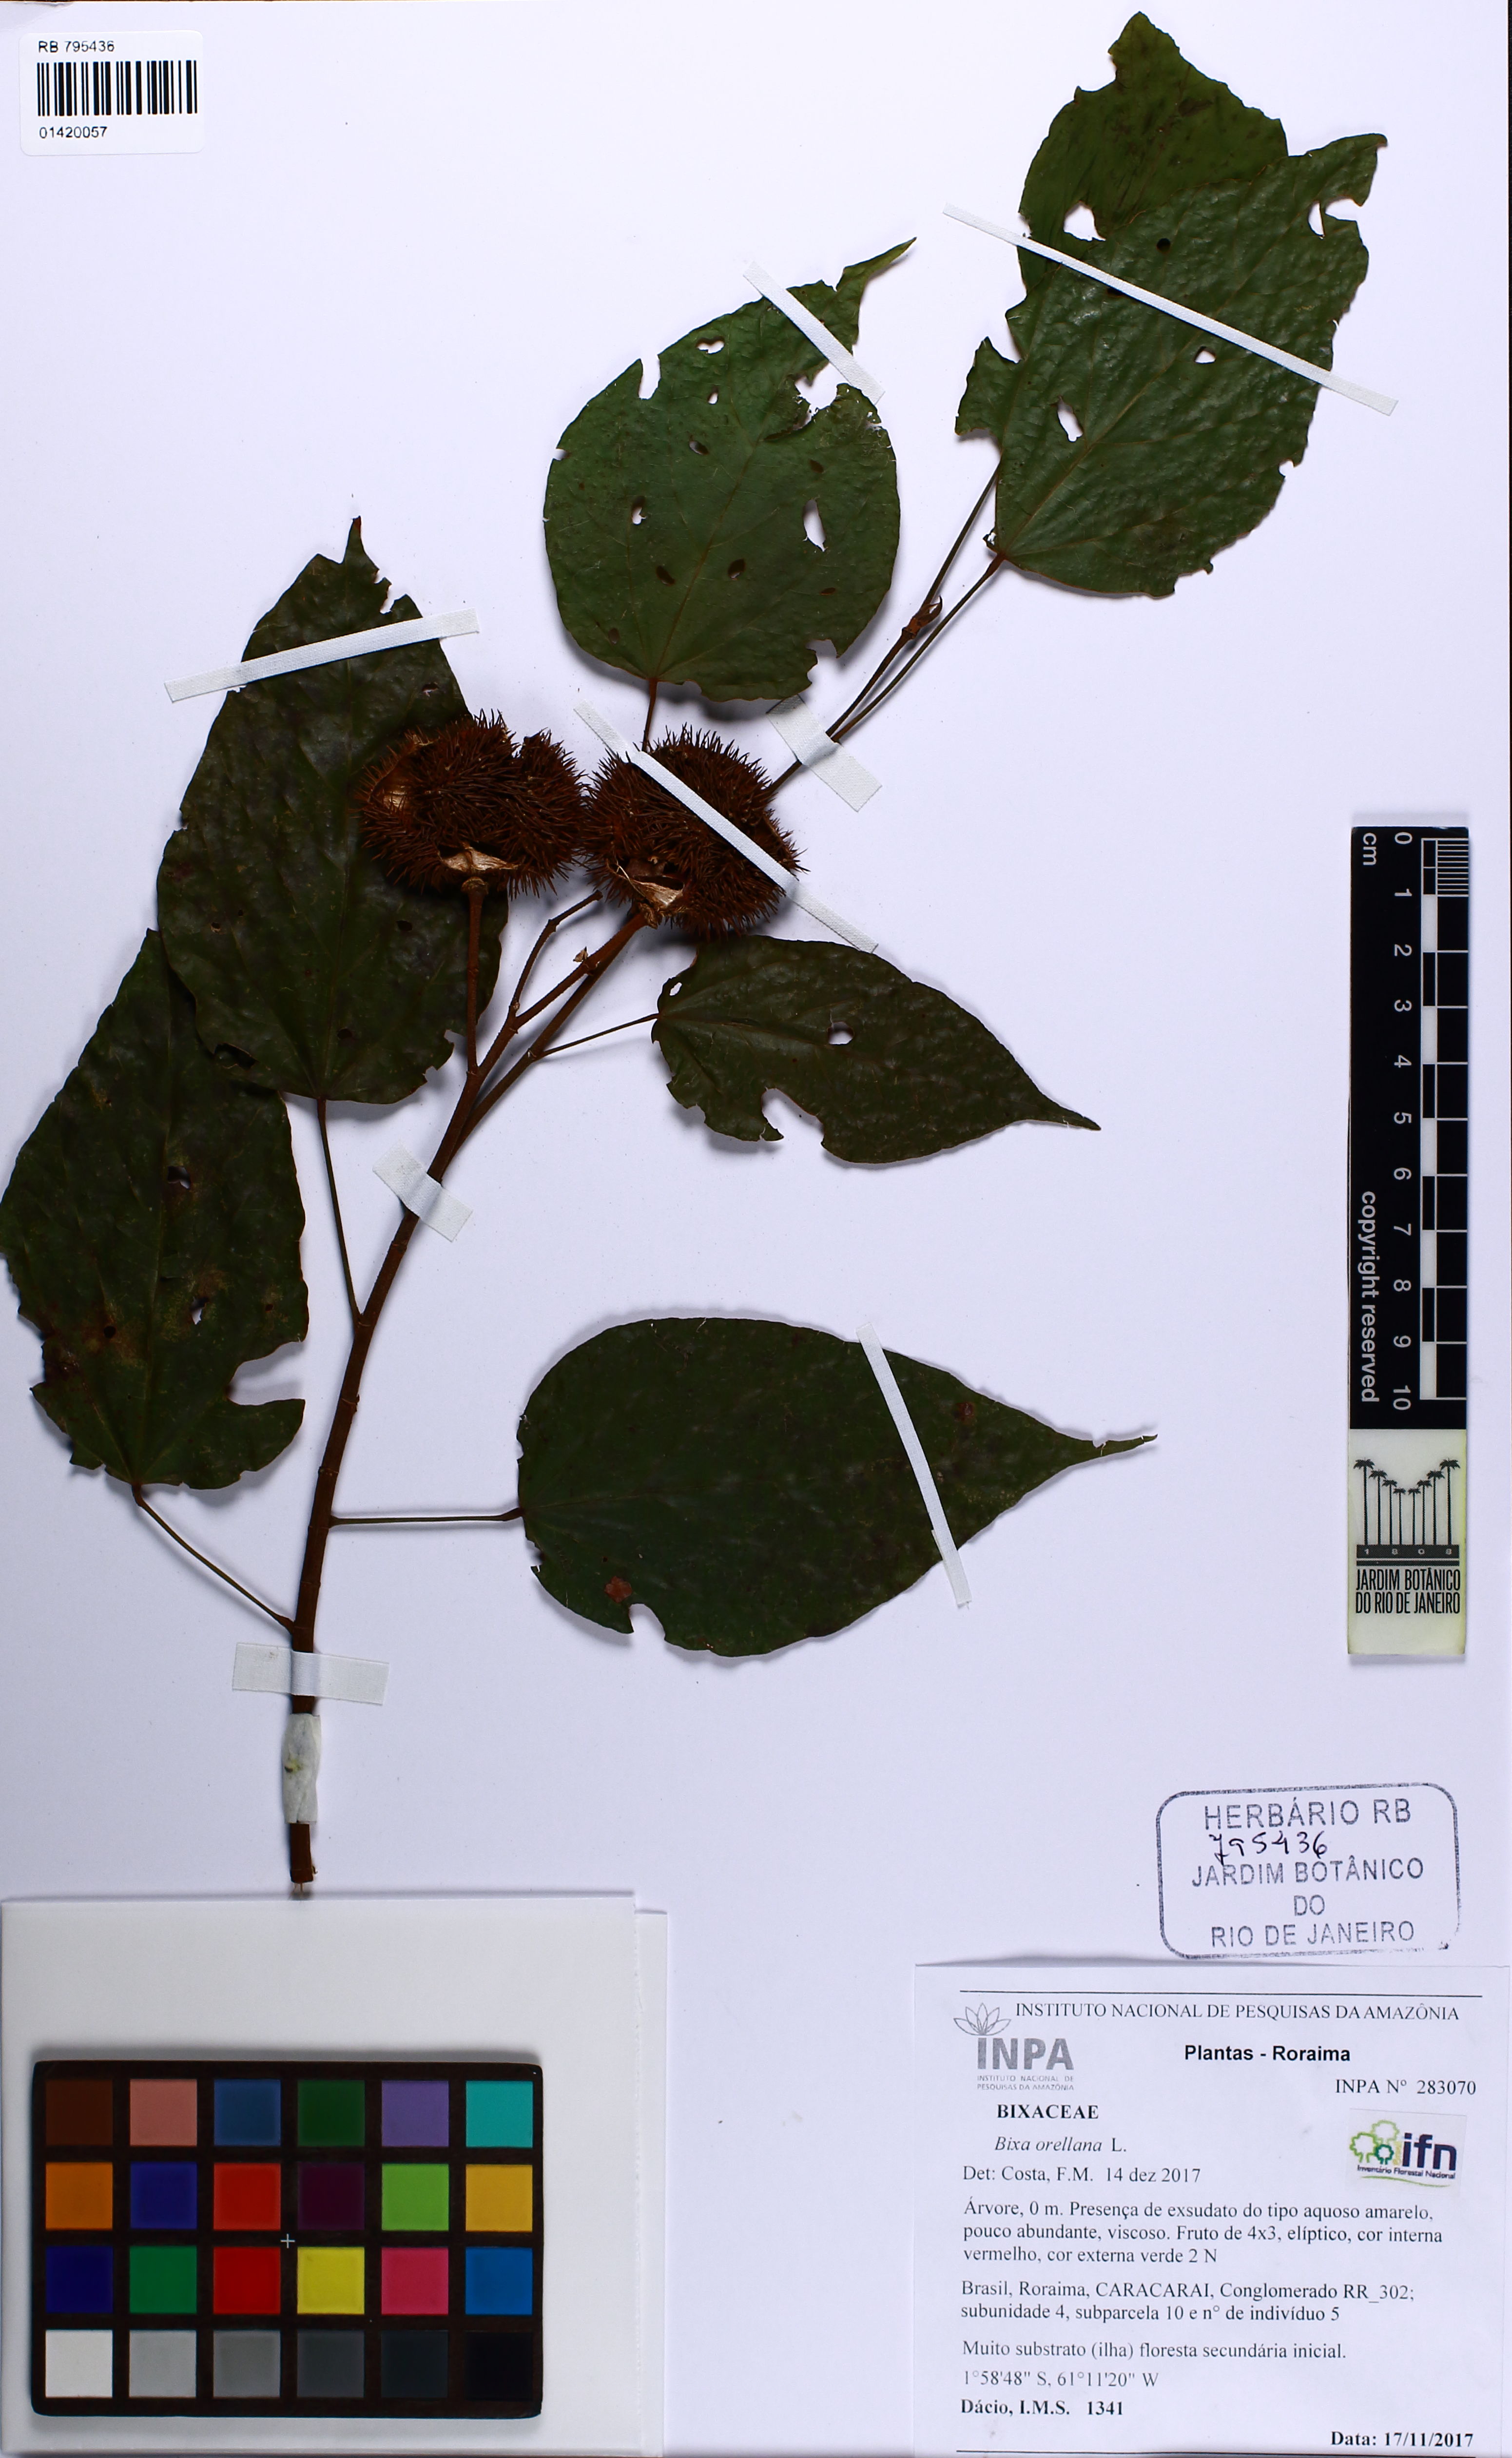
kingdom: Plantae
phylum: Tracheophyta
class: Magnoliopsida
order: Malvales
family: Bixaceae
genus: Bixa
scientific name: Bixa orellana
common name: Lipsticktree
